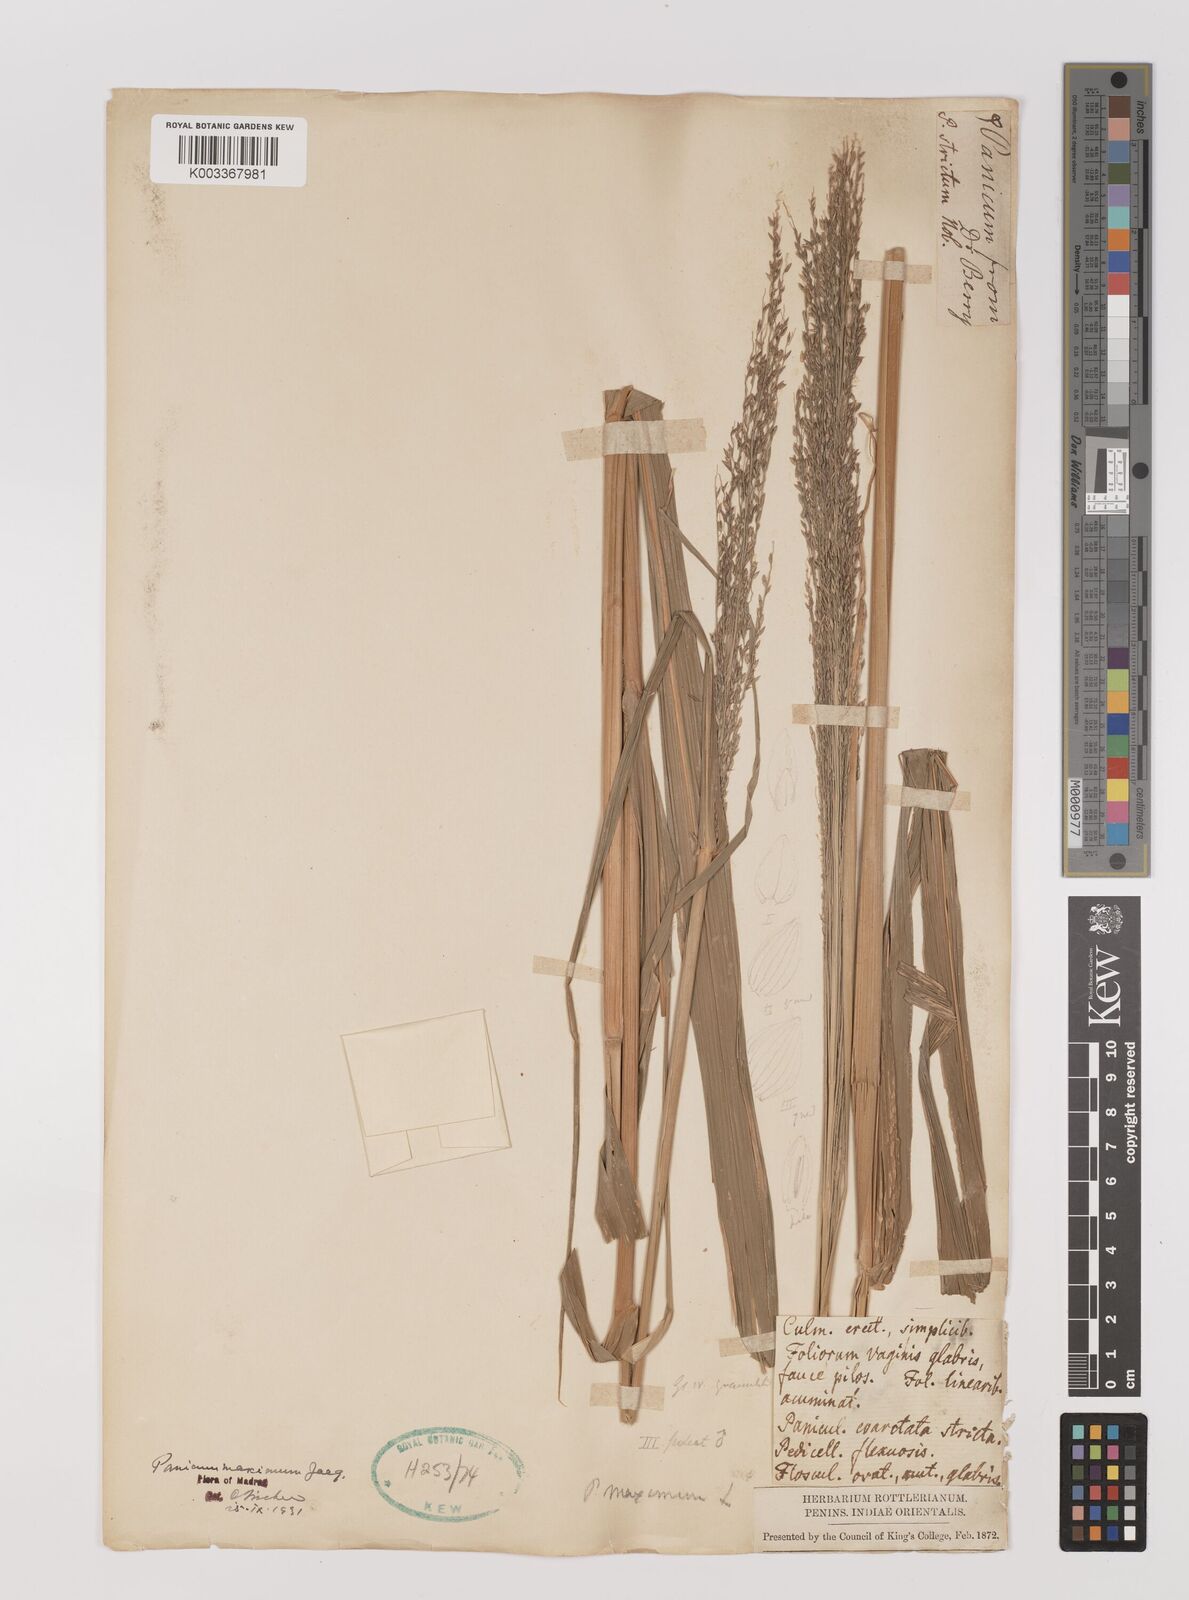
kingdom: Plantae
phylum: Tracheophyta
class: Liliopsida
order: Poales
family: Poaceae
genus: Megathyrsus
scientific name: Megathyrsus maximus
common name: Guineagrass
